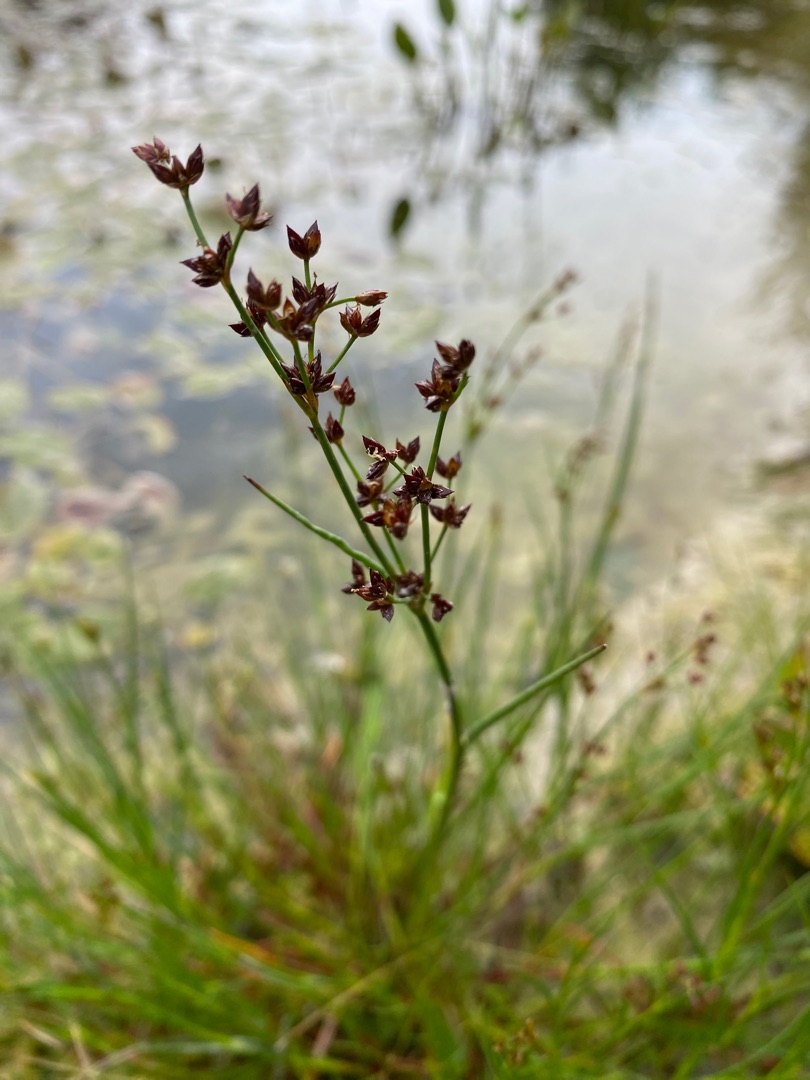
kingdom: Plantae
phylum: Tracheophyta
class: Liliopsida
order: Poales
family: Juncaceae
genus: Juncus
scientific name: Juncus articulatus
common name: Glanskapslet siv
